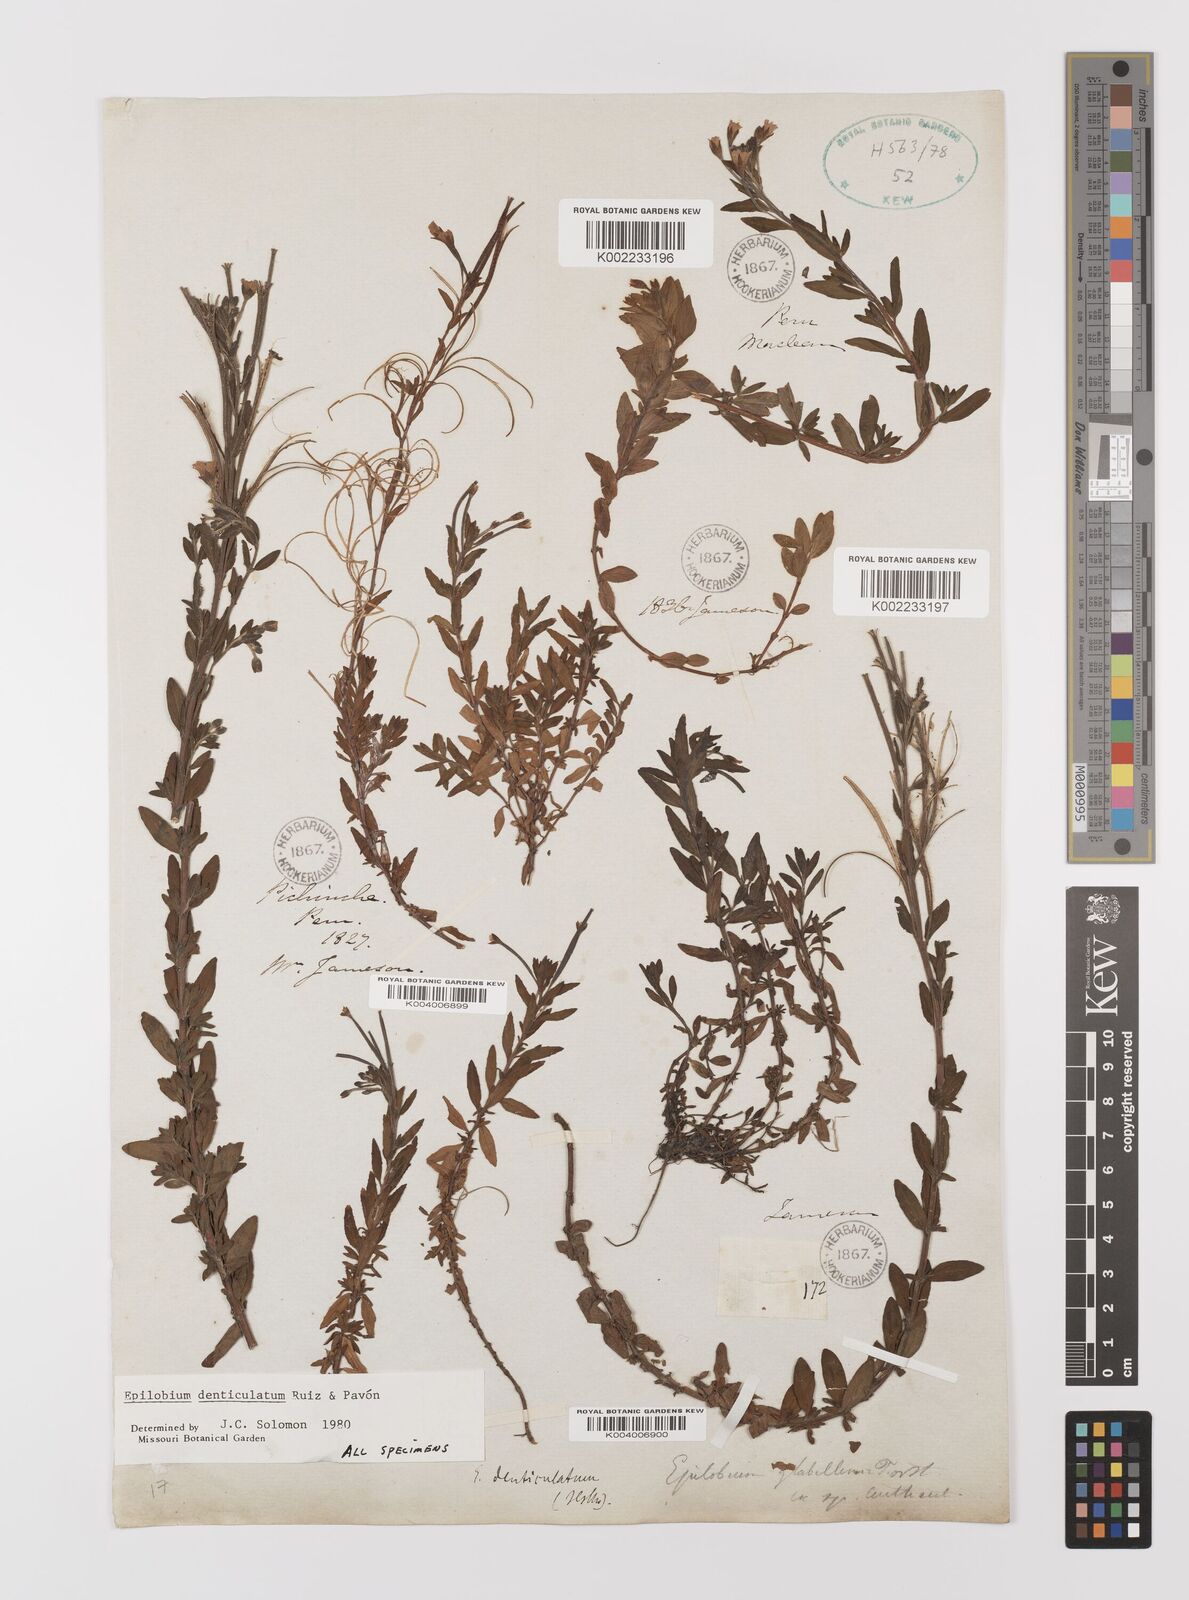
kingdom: Plantae
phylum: Tracheophyta
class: Magnoliopsida
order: Myrtales
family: Onagraceae
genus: Epilobium
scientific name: Epilobium denticulatum
